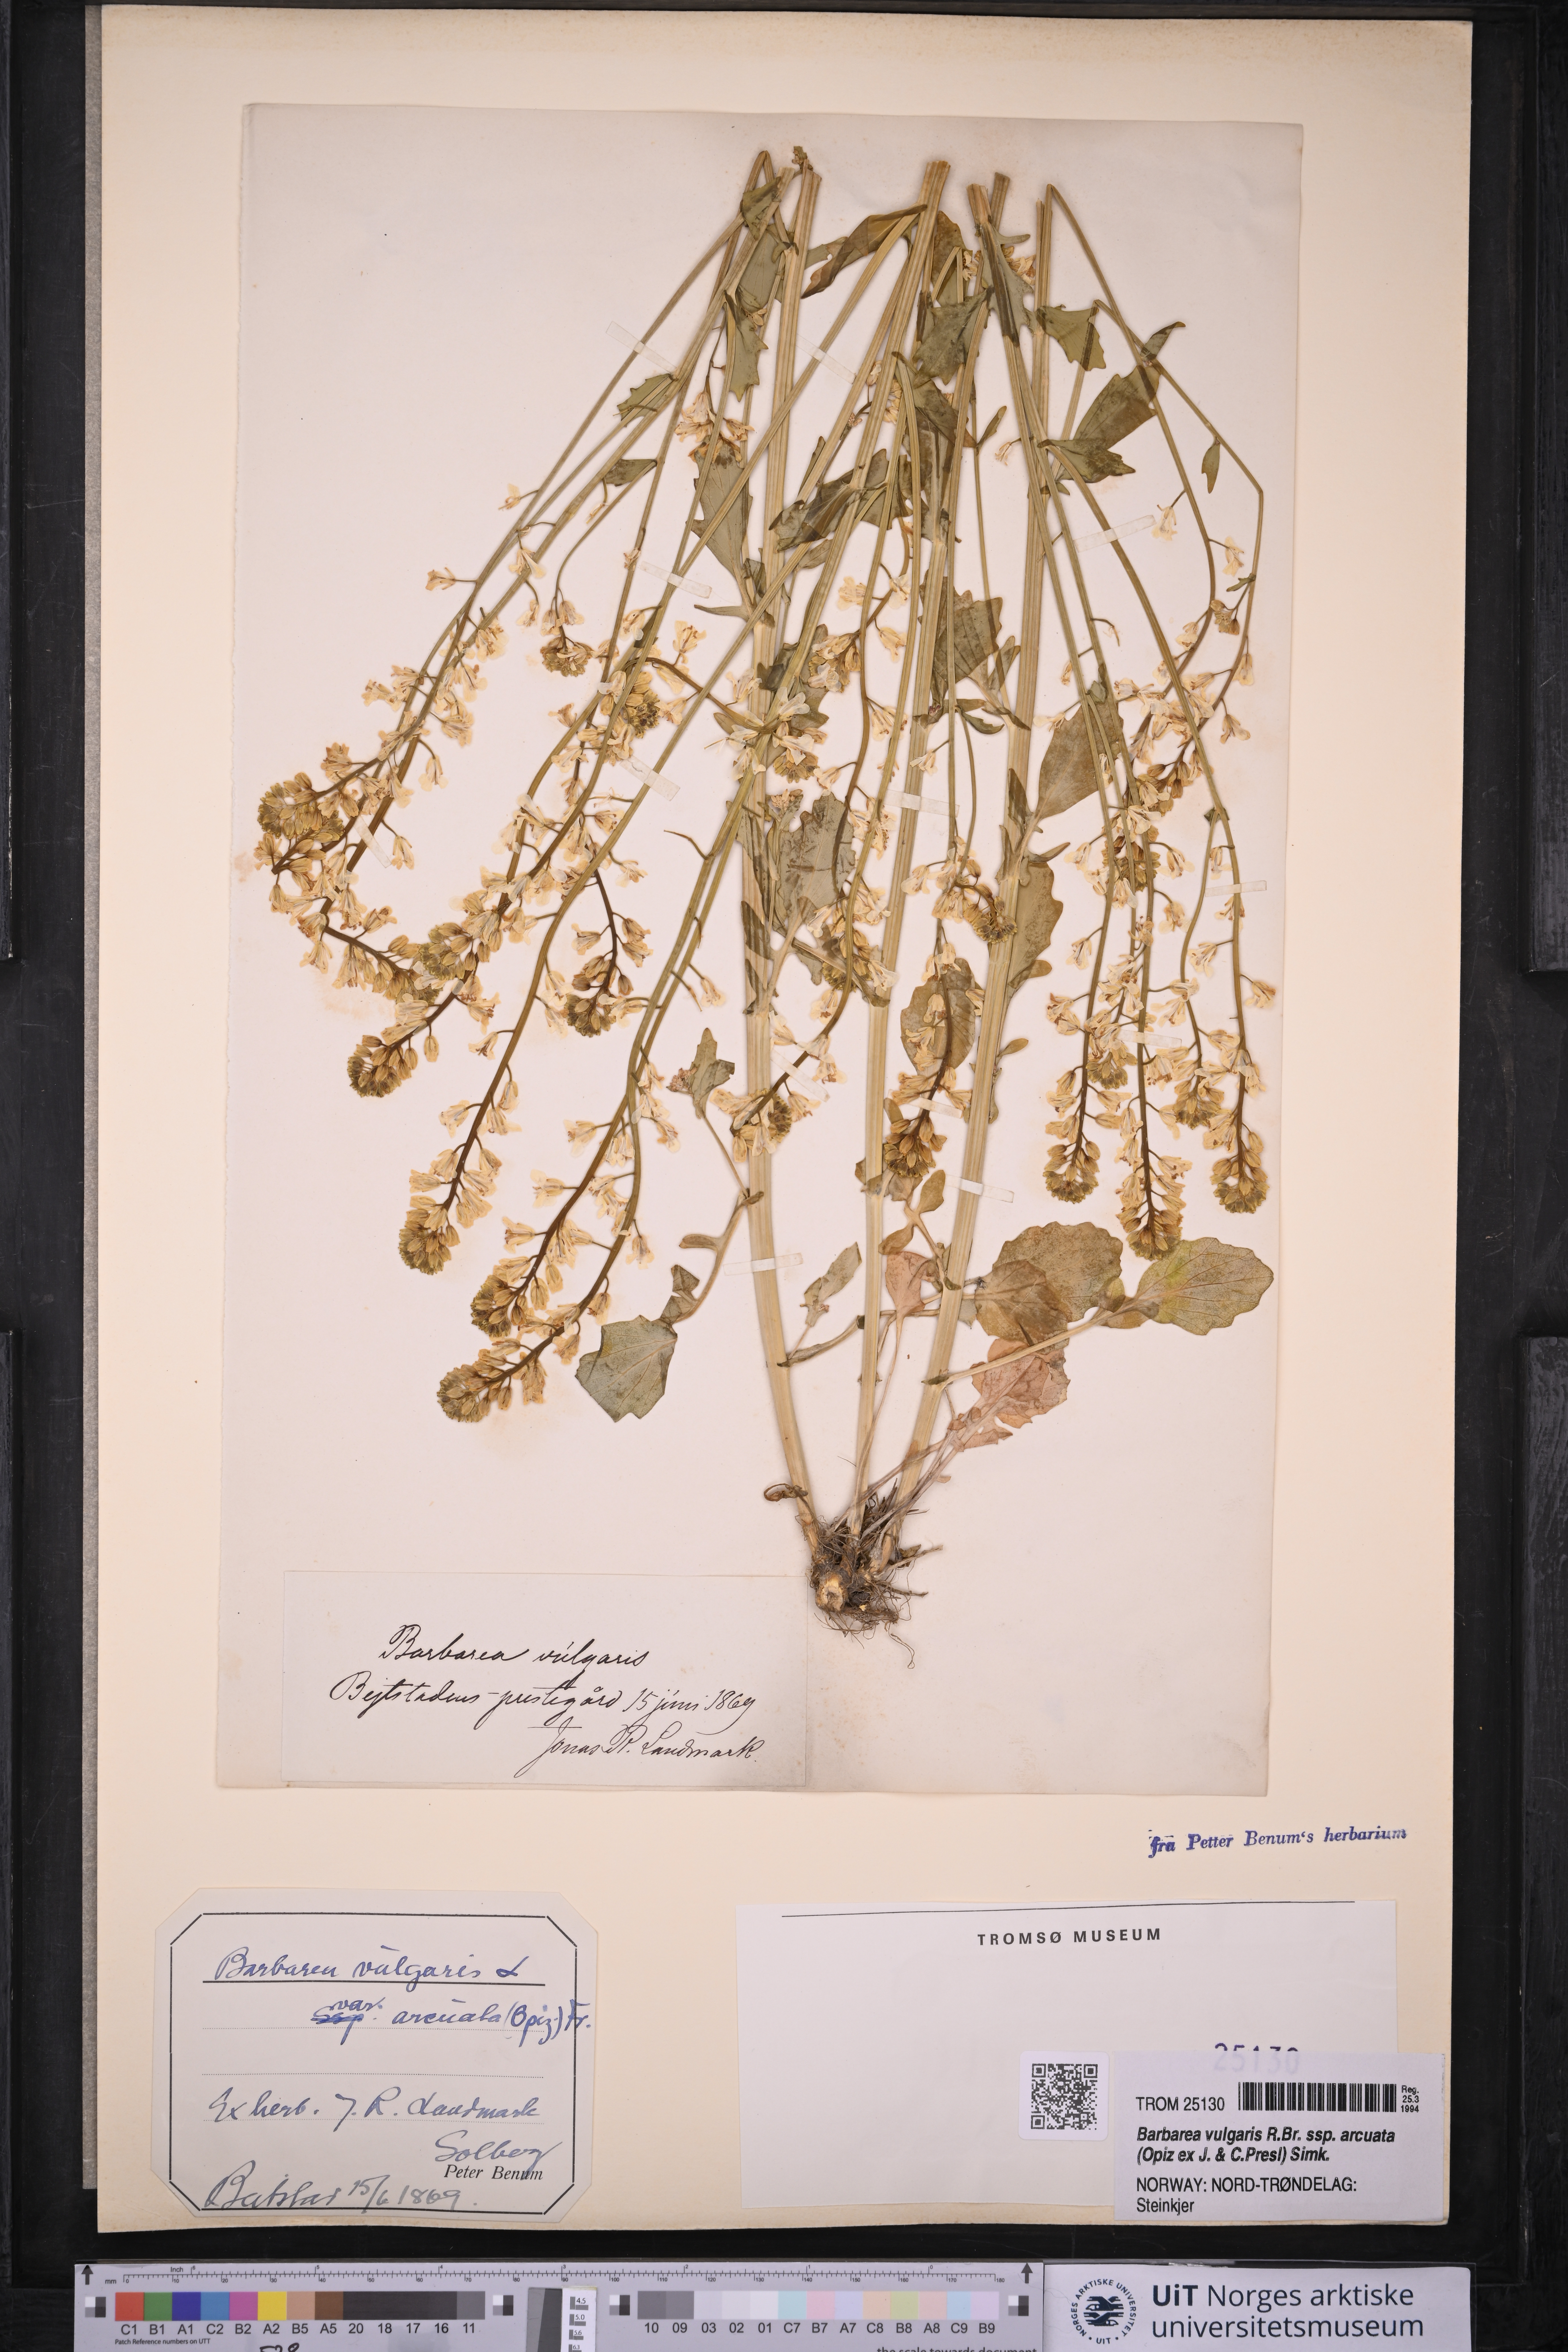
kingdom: Plantae
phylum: Tracheophyta
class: Magnoliopsida
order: Brassicales
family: Brassicaceae
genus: Barbarea
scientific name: Barbarea vulgaris
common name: Cressy-greens
